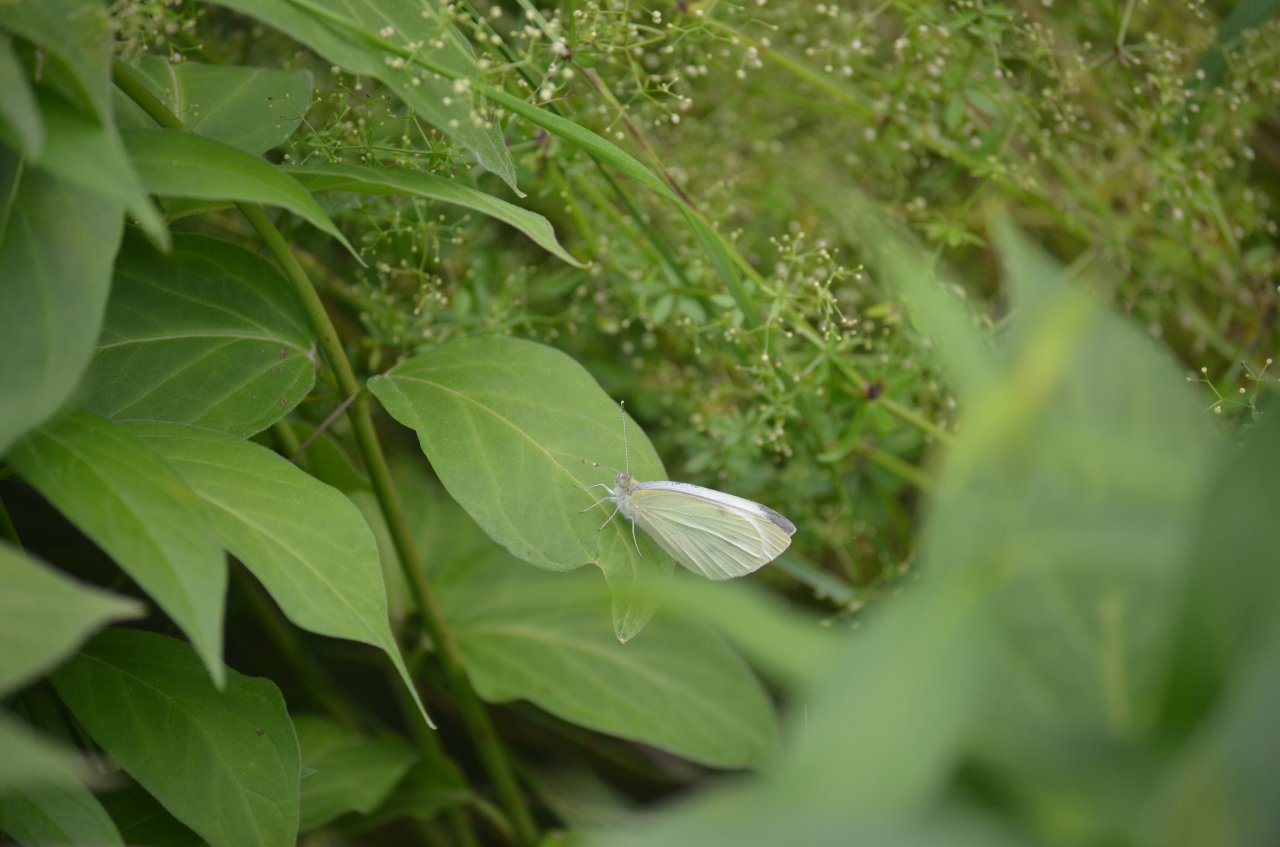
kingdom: Animalia
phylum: Arthropoda
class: Insecta
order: Lepidoptera
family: Pieridae
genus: Pieris
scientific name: Pieris rapae
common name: Cabbage White
